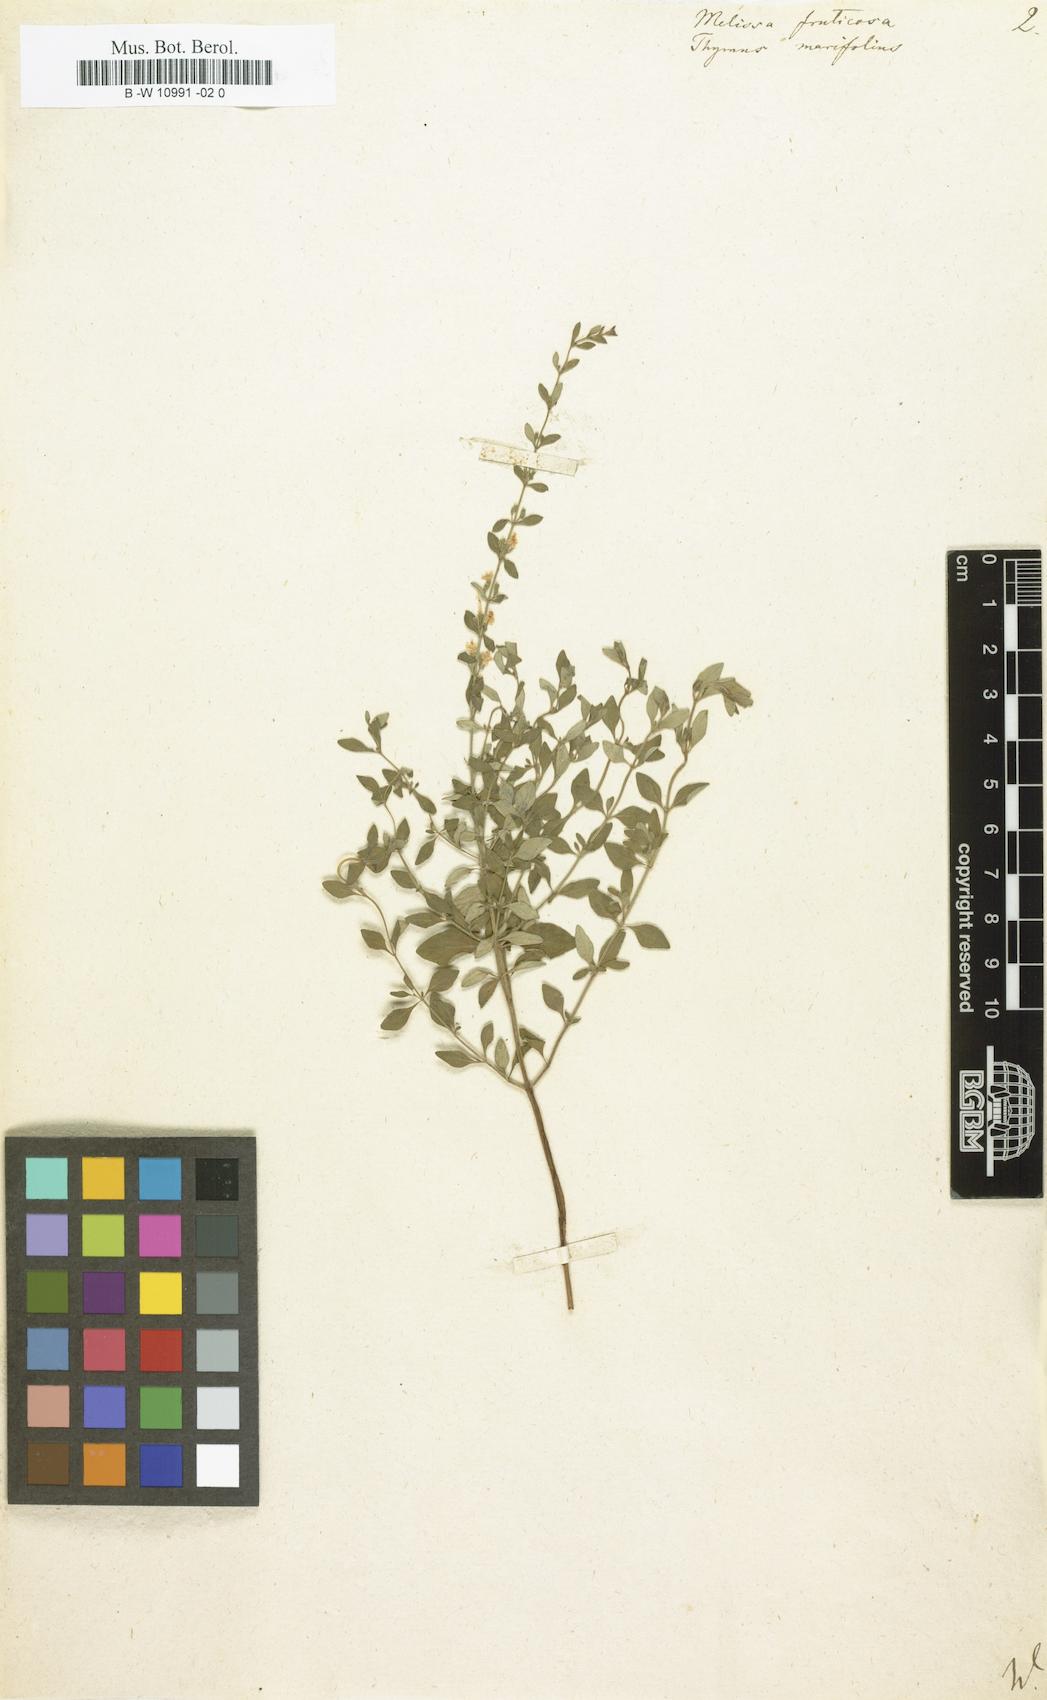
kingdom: Plantae
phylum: Tracheophyta
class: Magnoliopsida
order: Lamiales
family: Lamiaceae
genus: Melissa
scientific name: Melissa fruticosa
